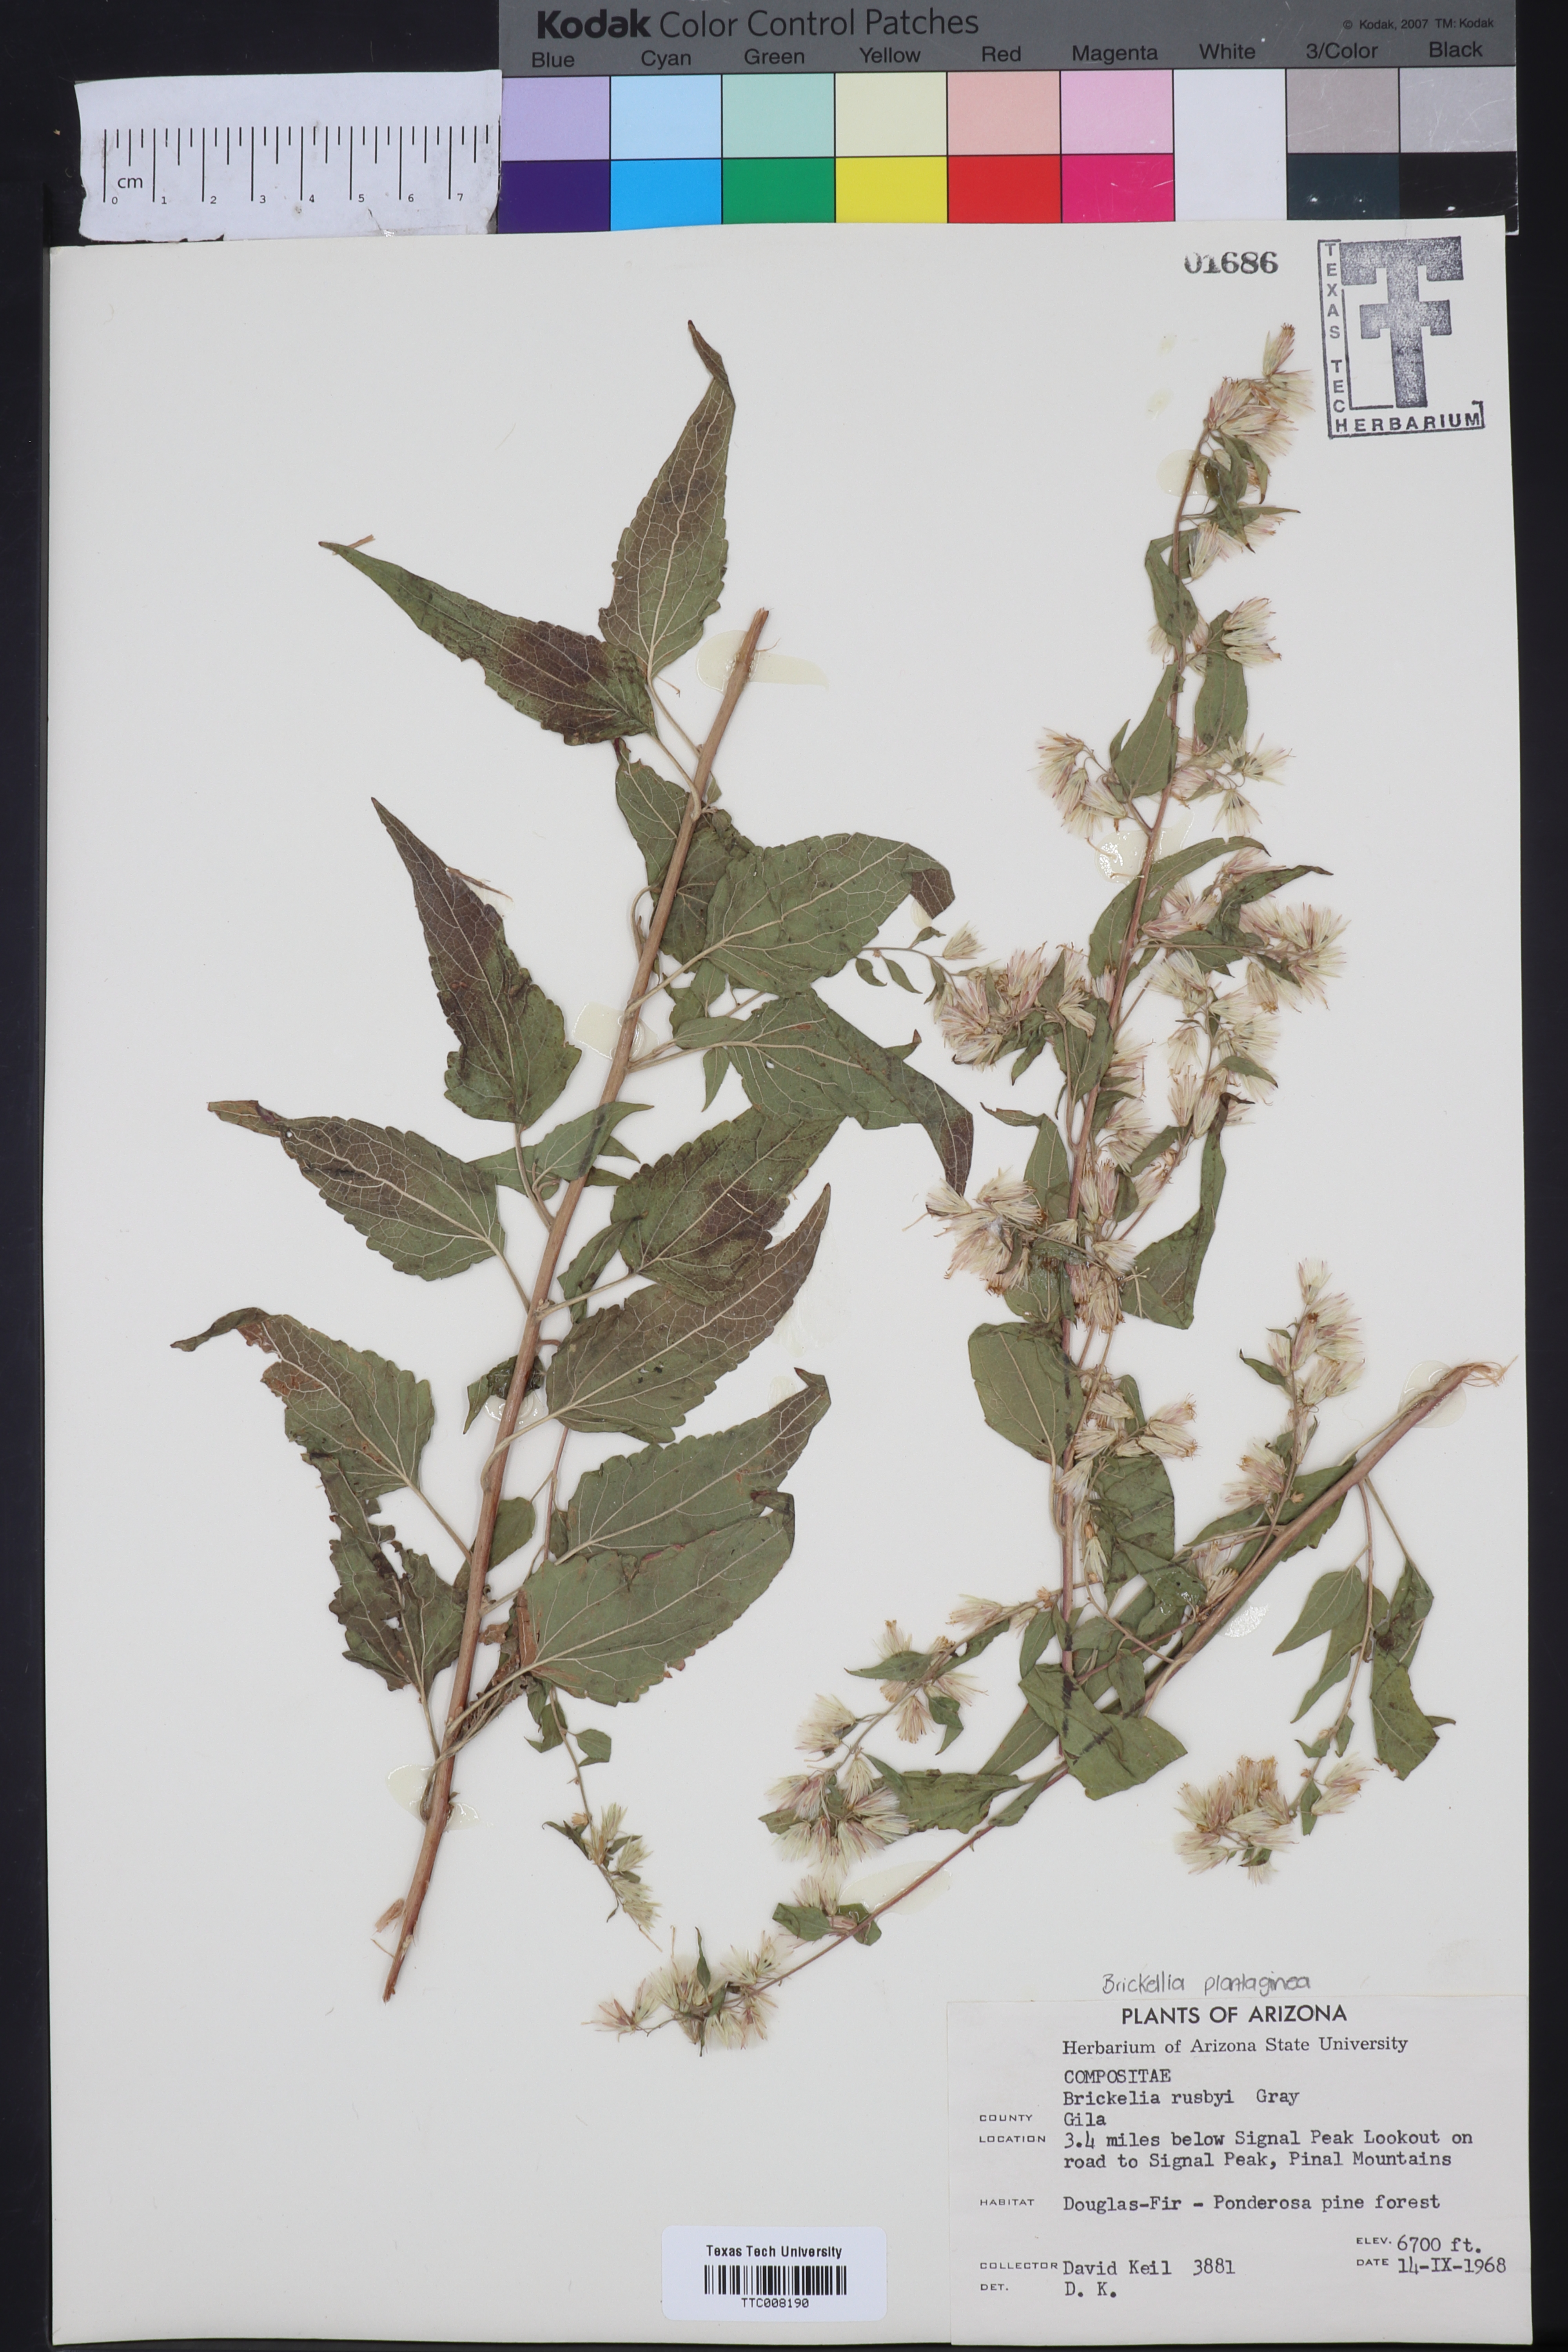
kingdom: Plantae
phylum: Tracheophyta
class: Magnoliopsida
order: Asterales
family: Asteraceae
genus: Brickellia
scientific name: Brickellia rusbyi
